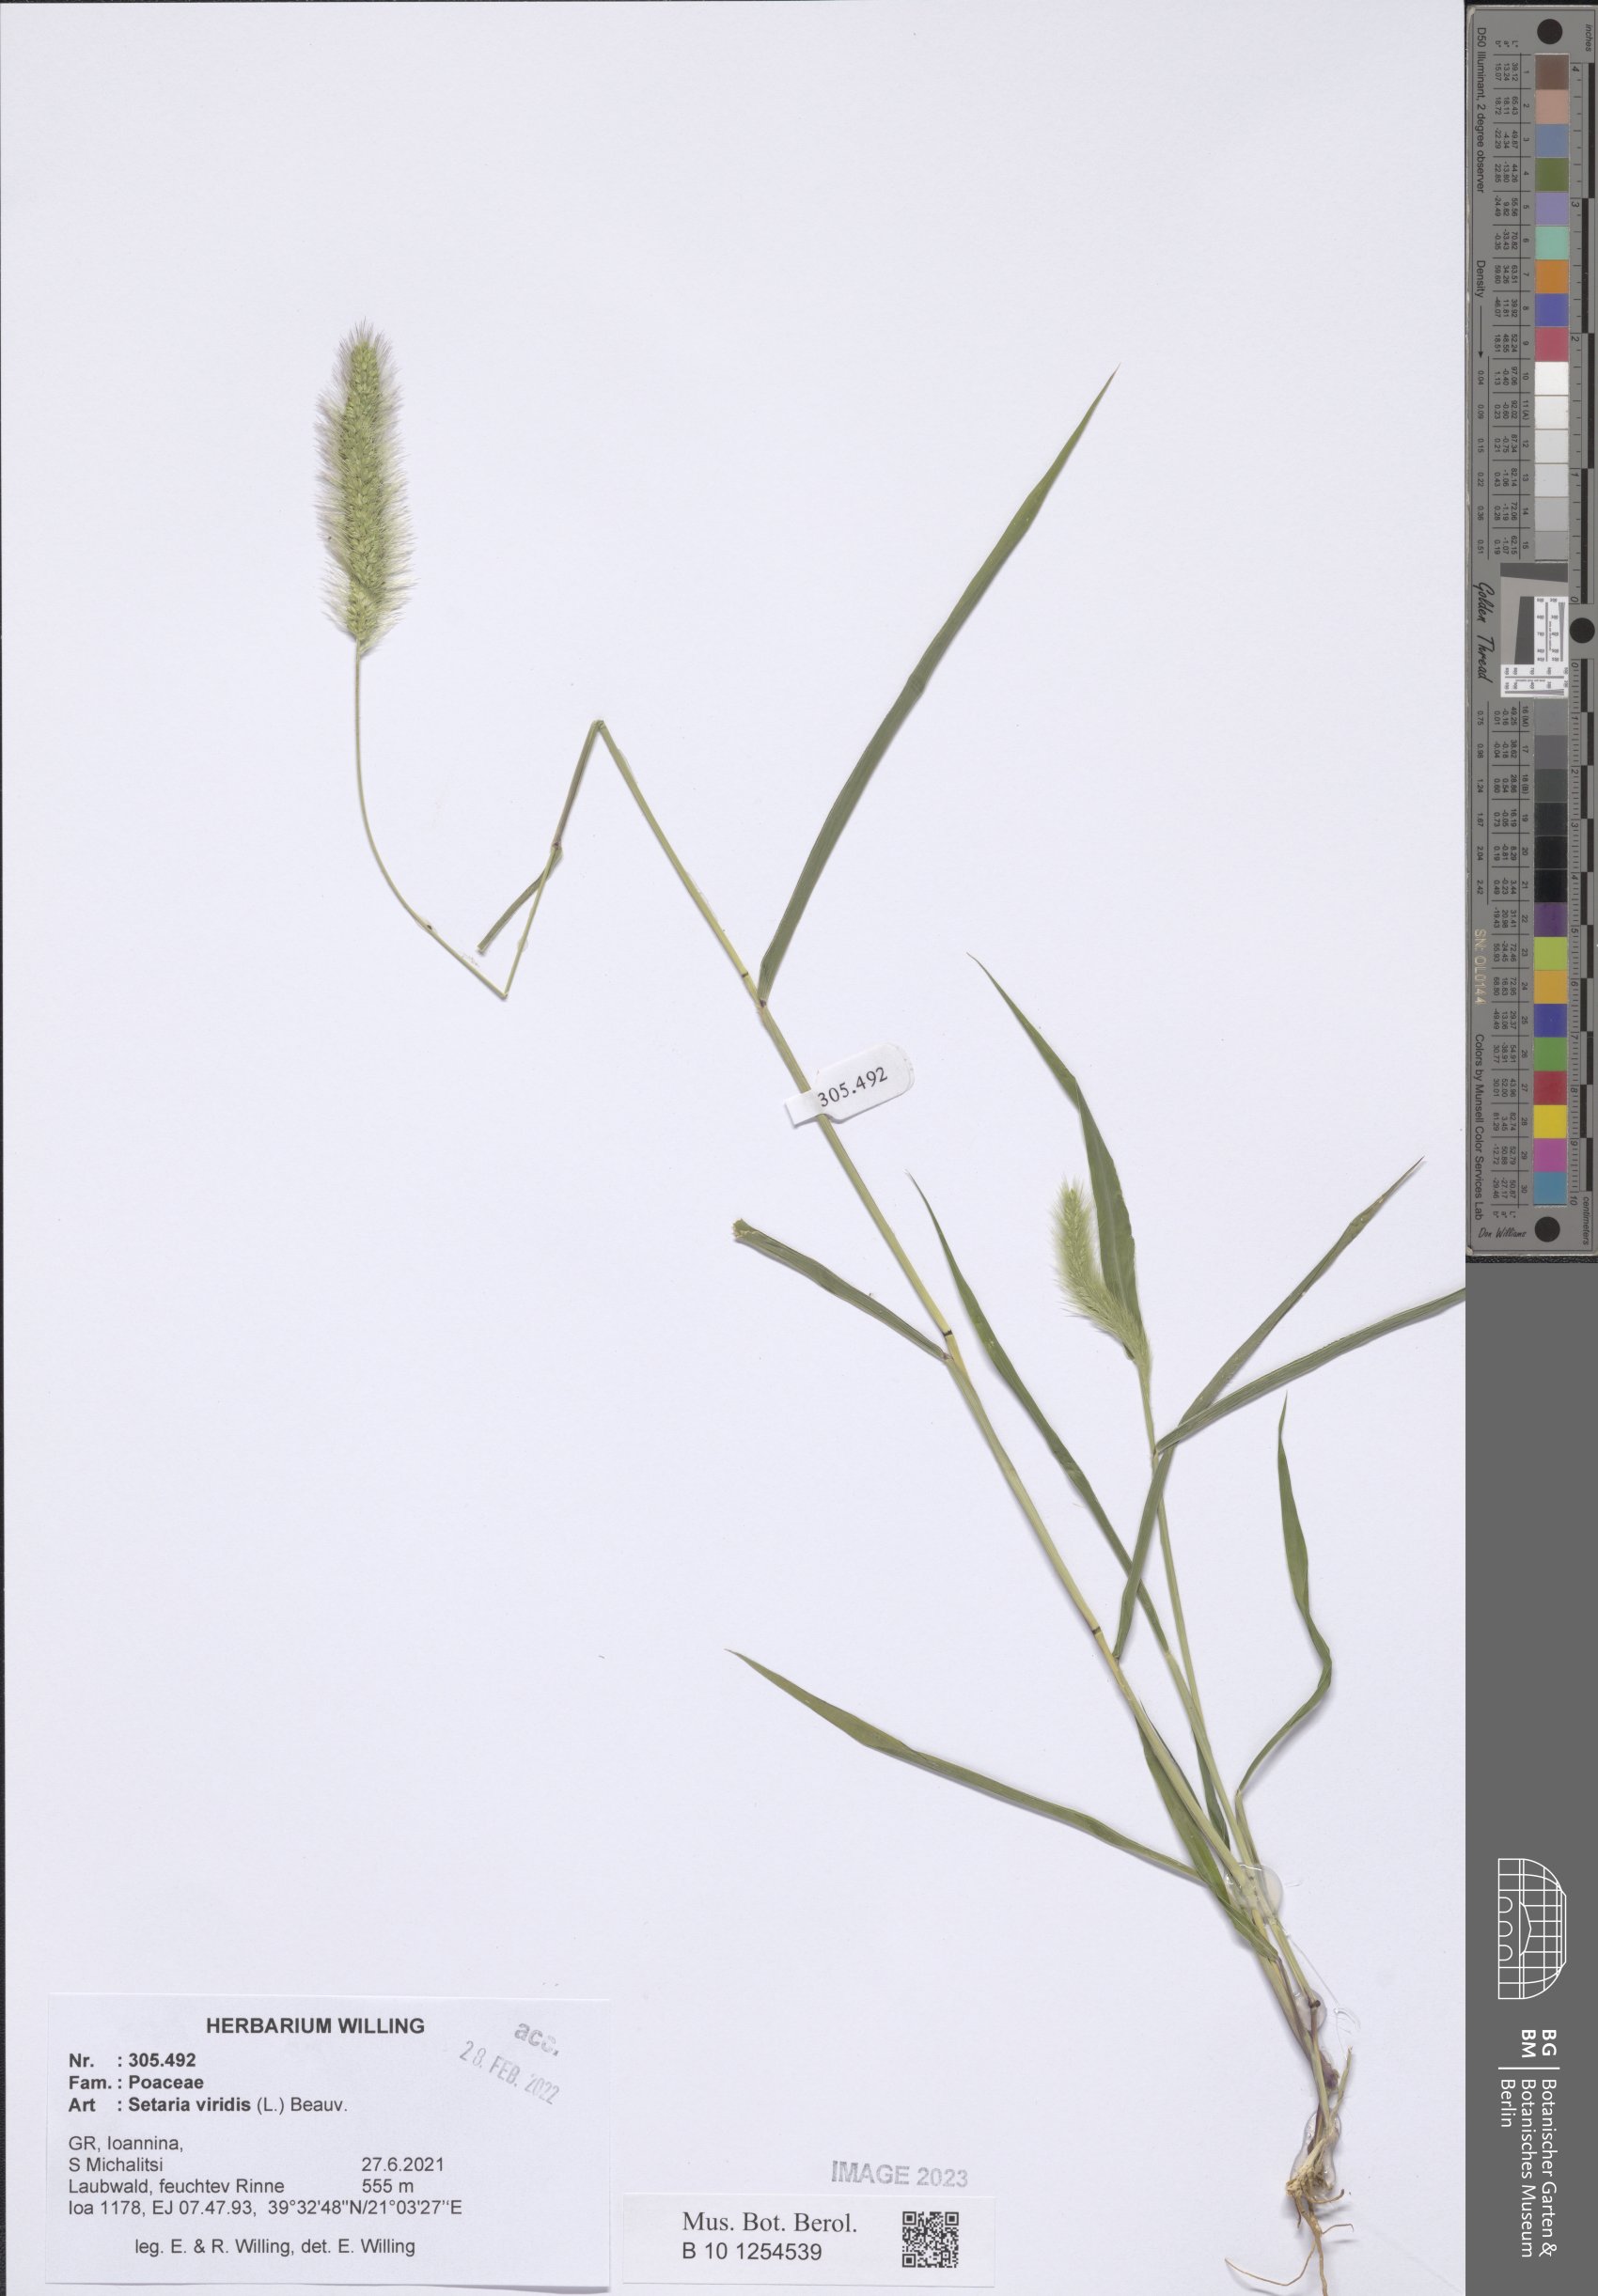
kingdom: Plantae
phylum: Tracheophyta
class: Liliopsida
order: Poales
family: Poaceae
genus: Setaria
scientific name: Setaria viridis
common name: Green bristlegrass
